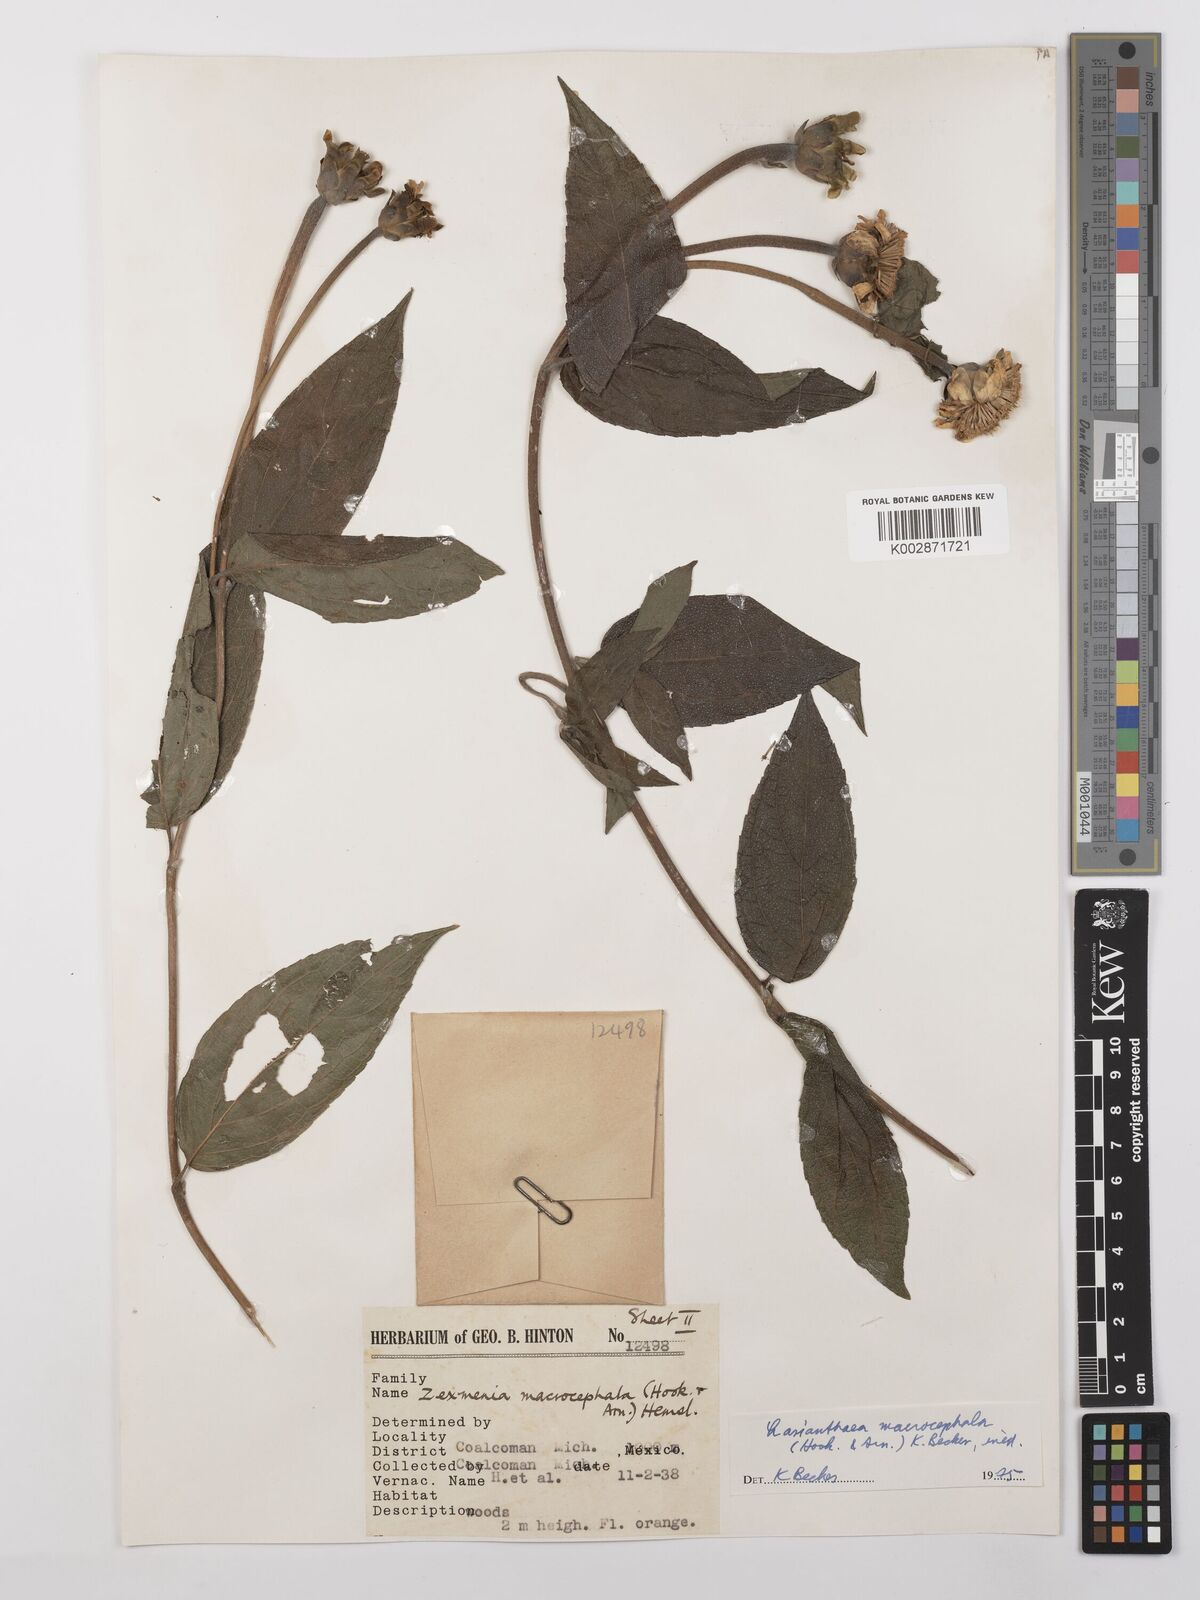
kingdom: Plantae
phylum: Tracheophyta
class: Magnoliopsida
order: Asterales
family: Asteraceae
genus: Lasianthaea
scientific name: Lasianthaea macrocephala
